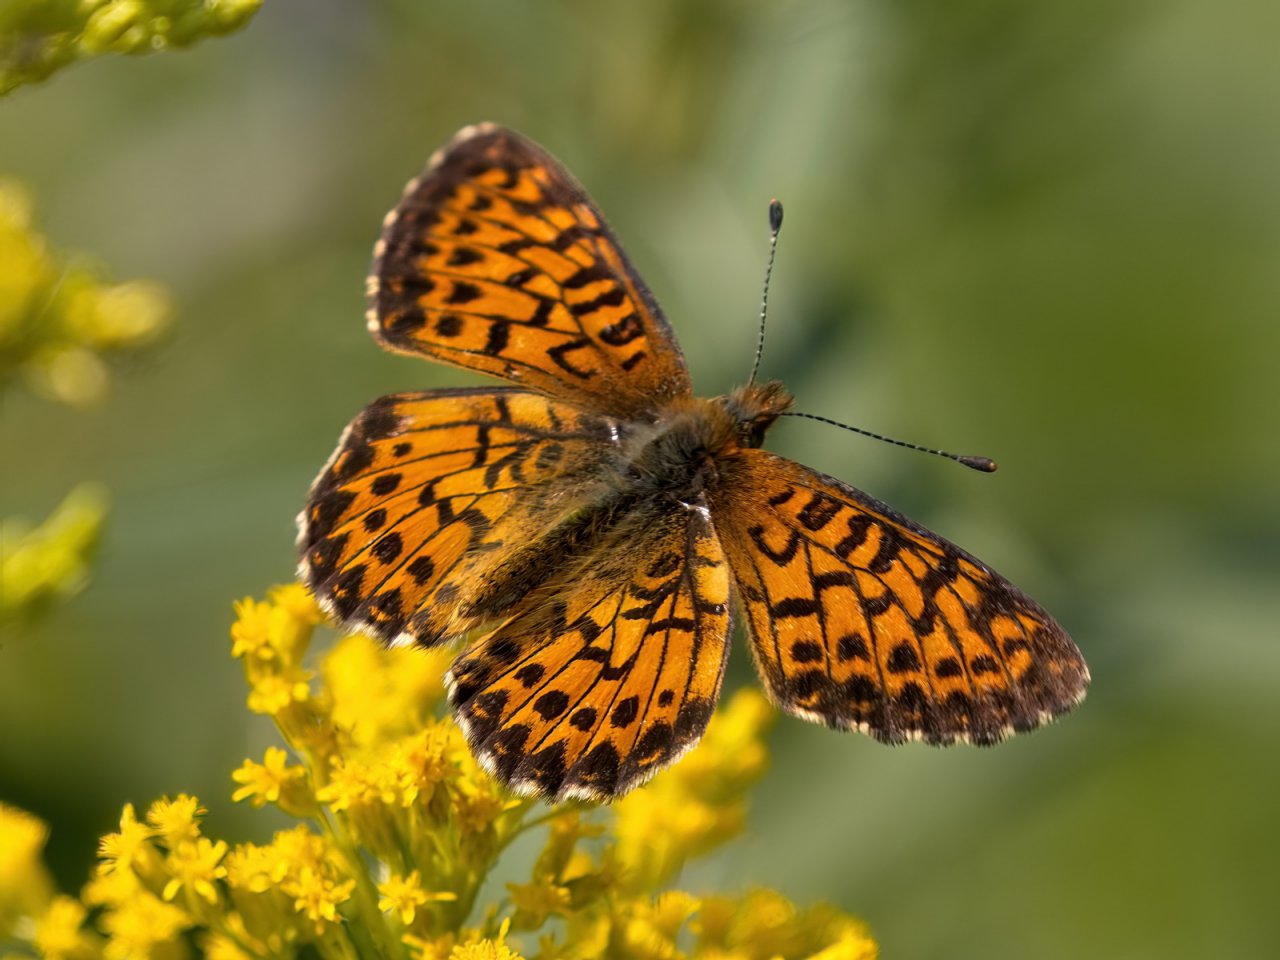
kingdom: Animalia
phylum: Arthropoda
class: Insecta
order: Lepidoptera
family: Nymphalidae
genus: Boloria
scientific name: Boloria chariclea
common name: Arctic Fritillary
